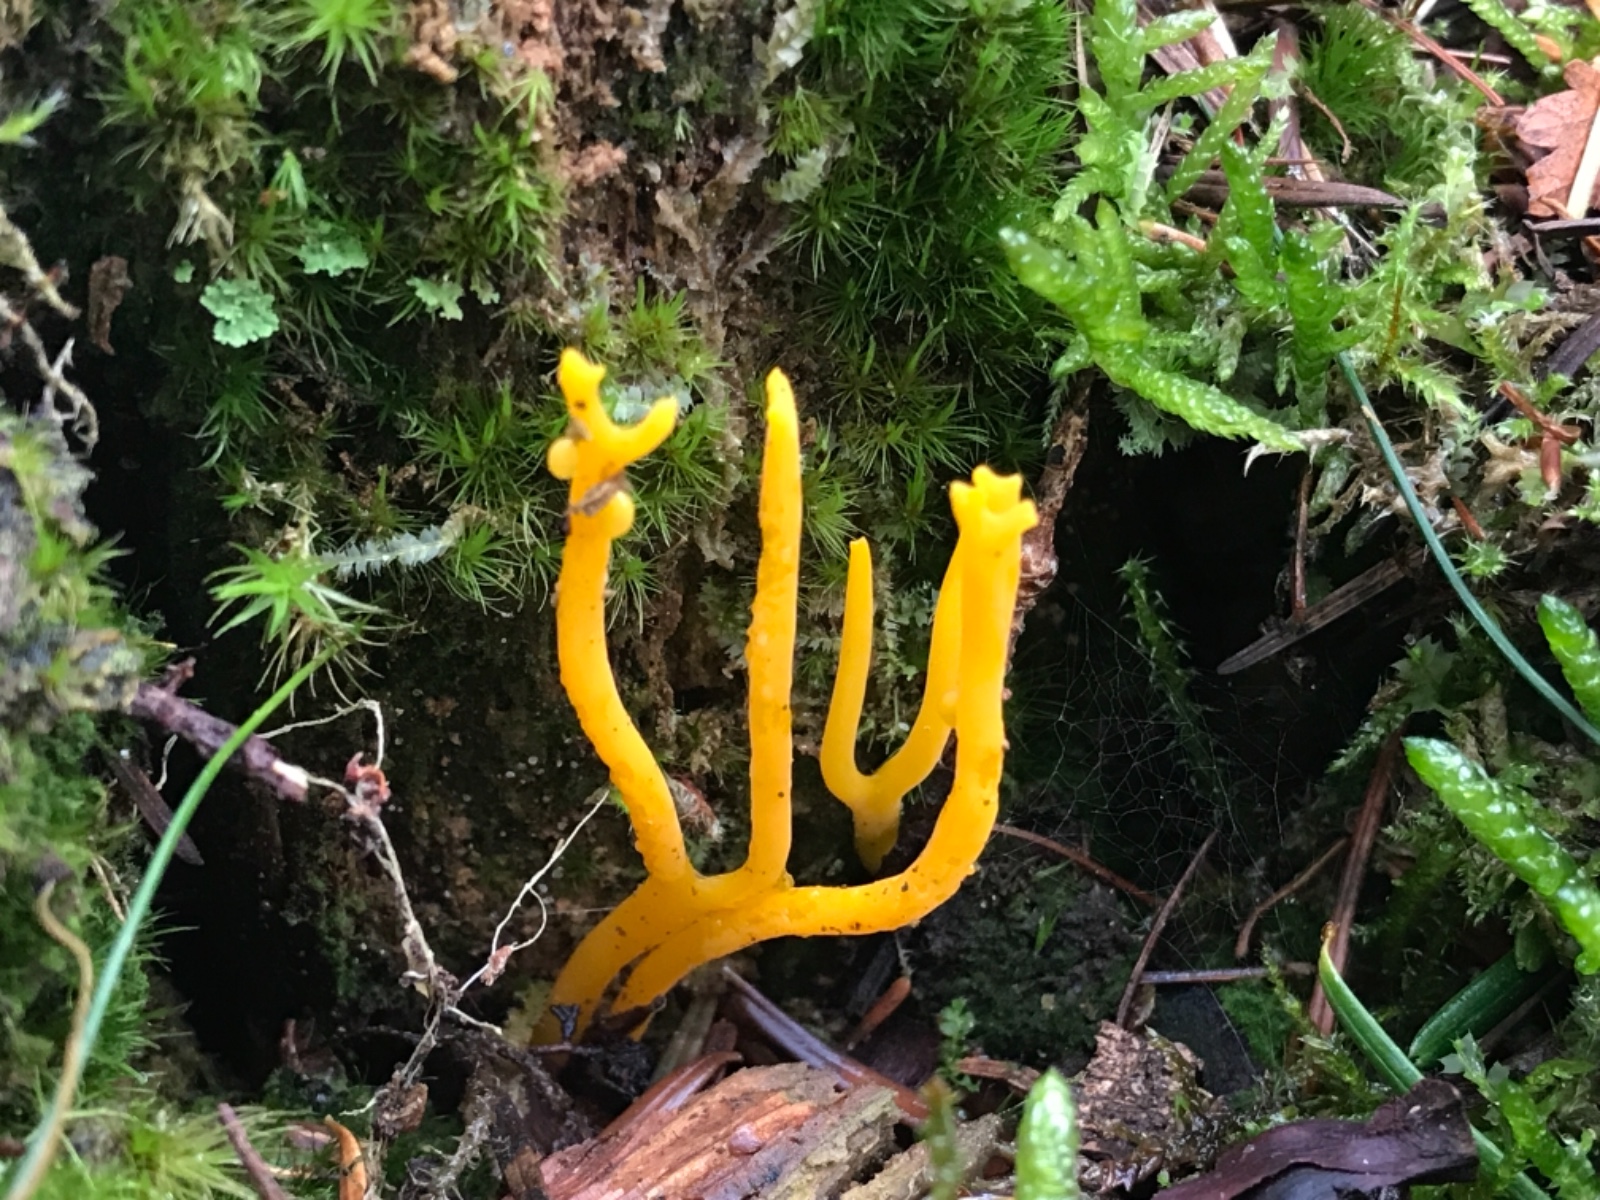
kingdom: Fungi
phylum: Basidiomycota
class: Dacrymycetes
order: Dacrymycetales
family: Dacrymycetaceae
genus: Calocera
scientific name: Calocera viscosa
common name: almindelig guldgaffel
